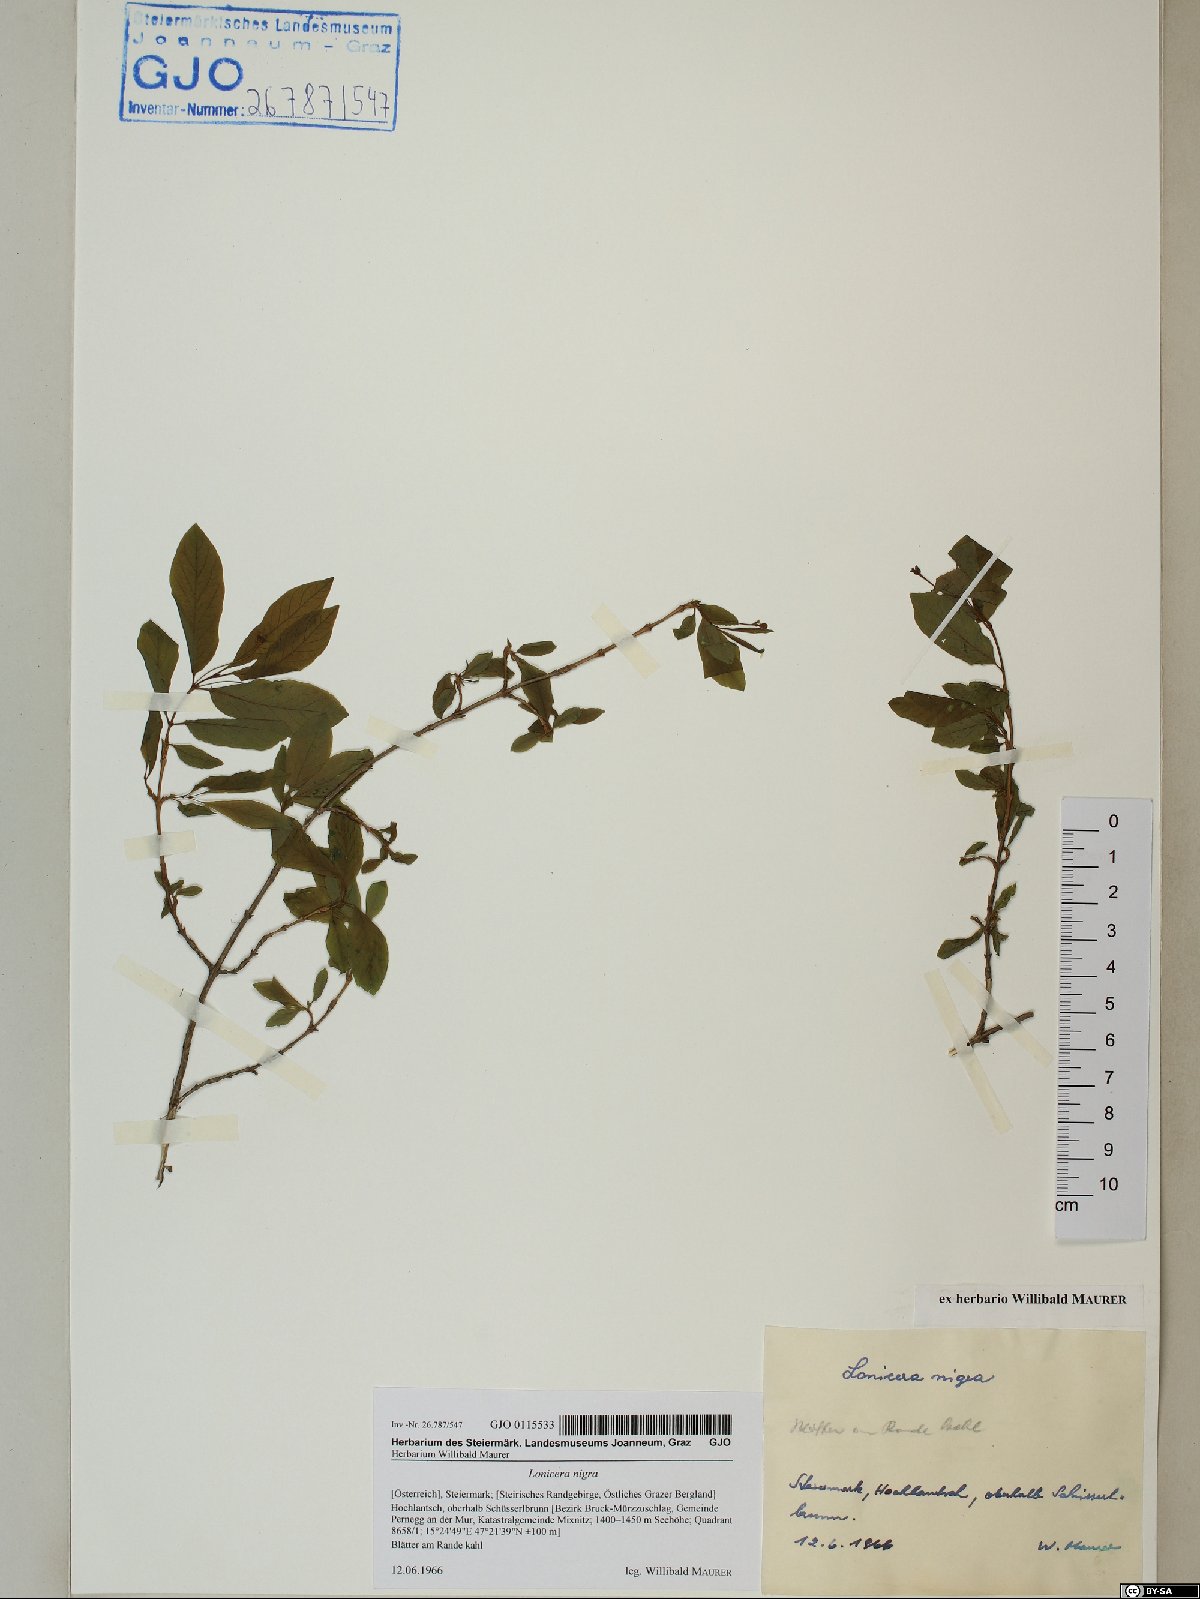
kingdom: Plantae
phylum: Tracheophyta
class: Magnoliopsida
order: Dipsacales
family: Caprifoliaceae
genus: Lonicera
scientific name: Lonicera nigra
